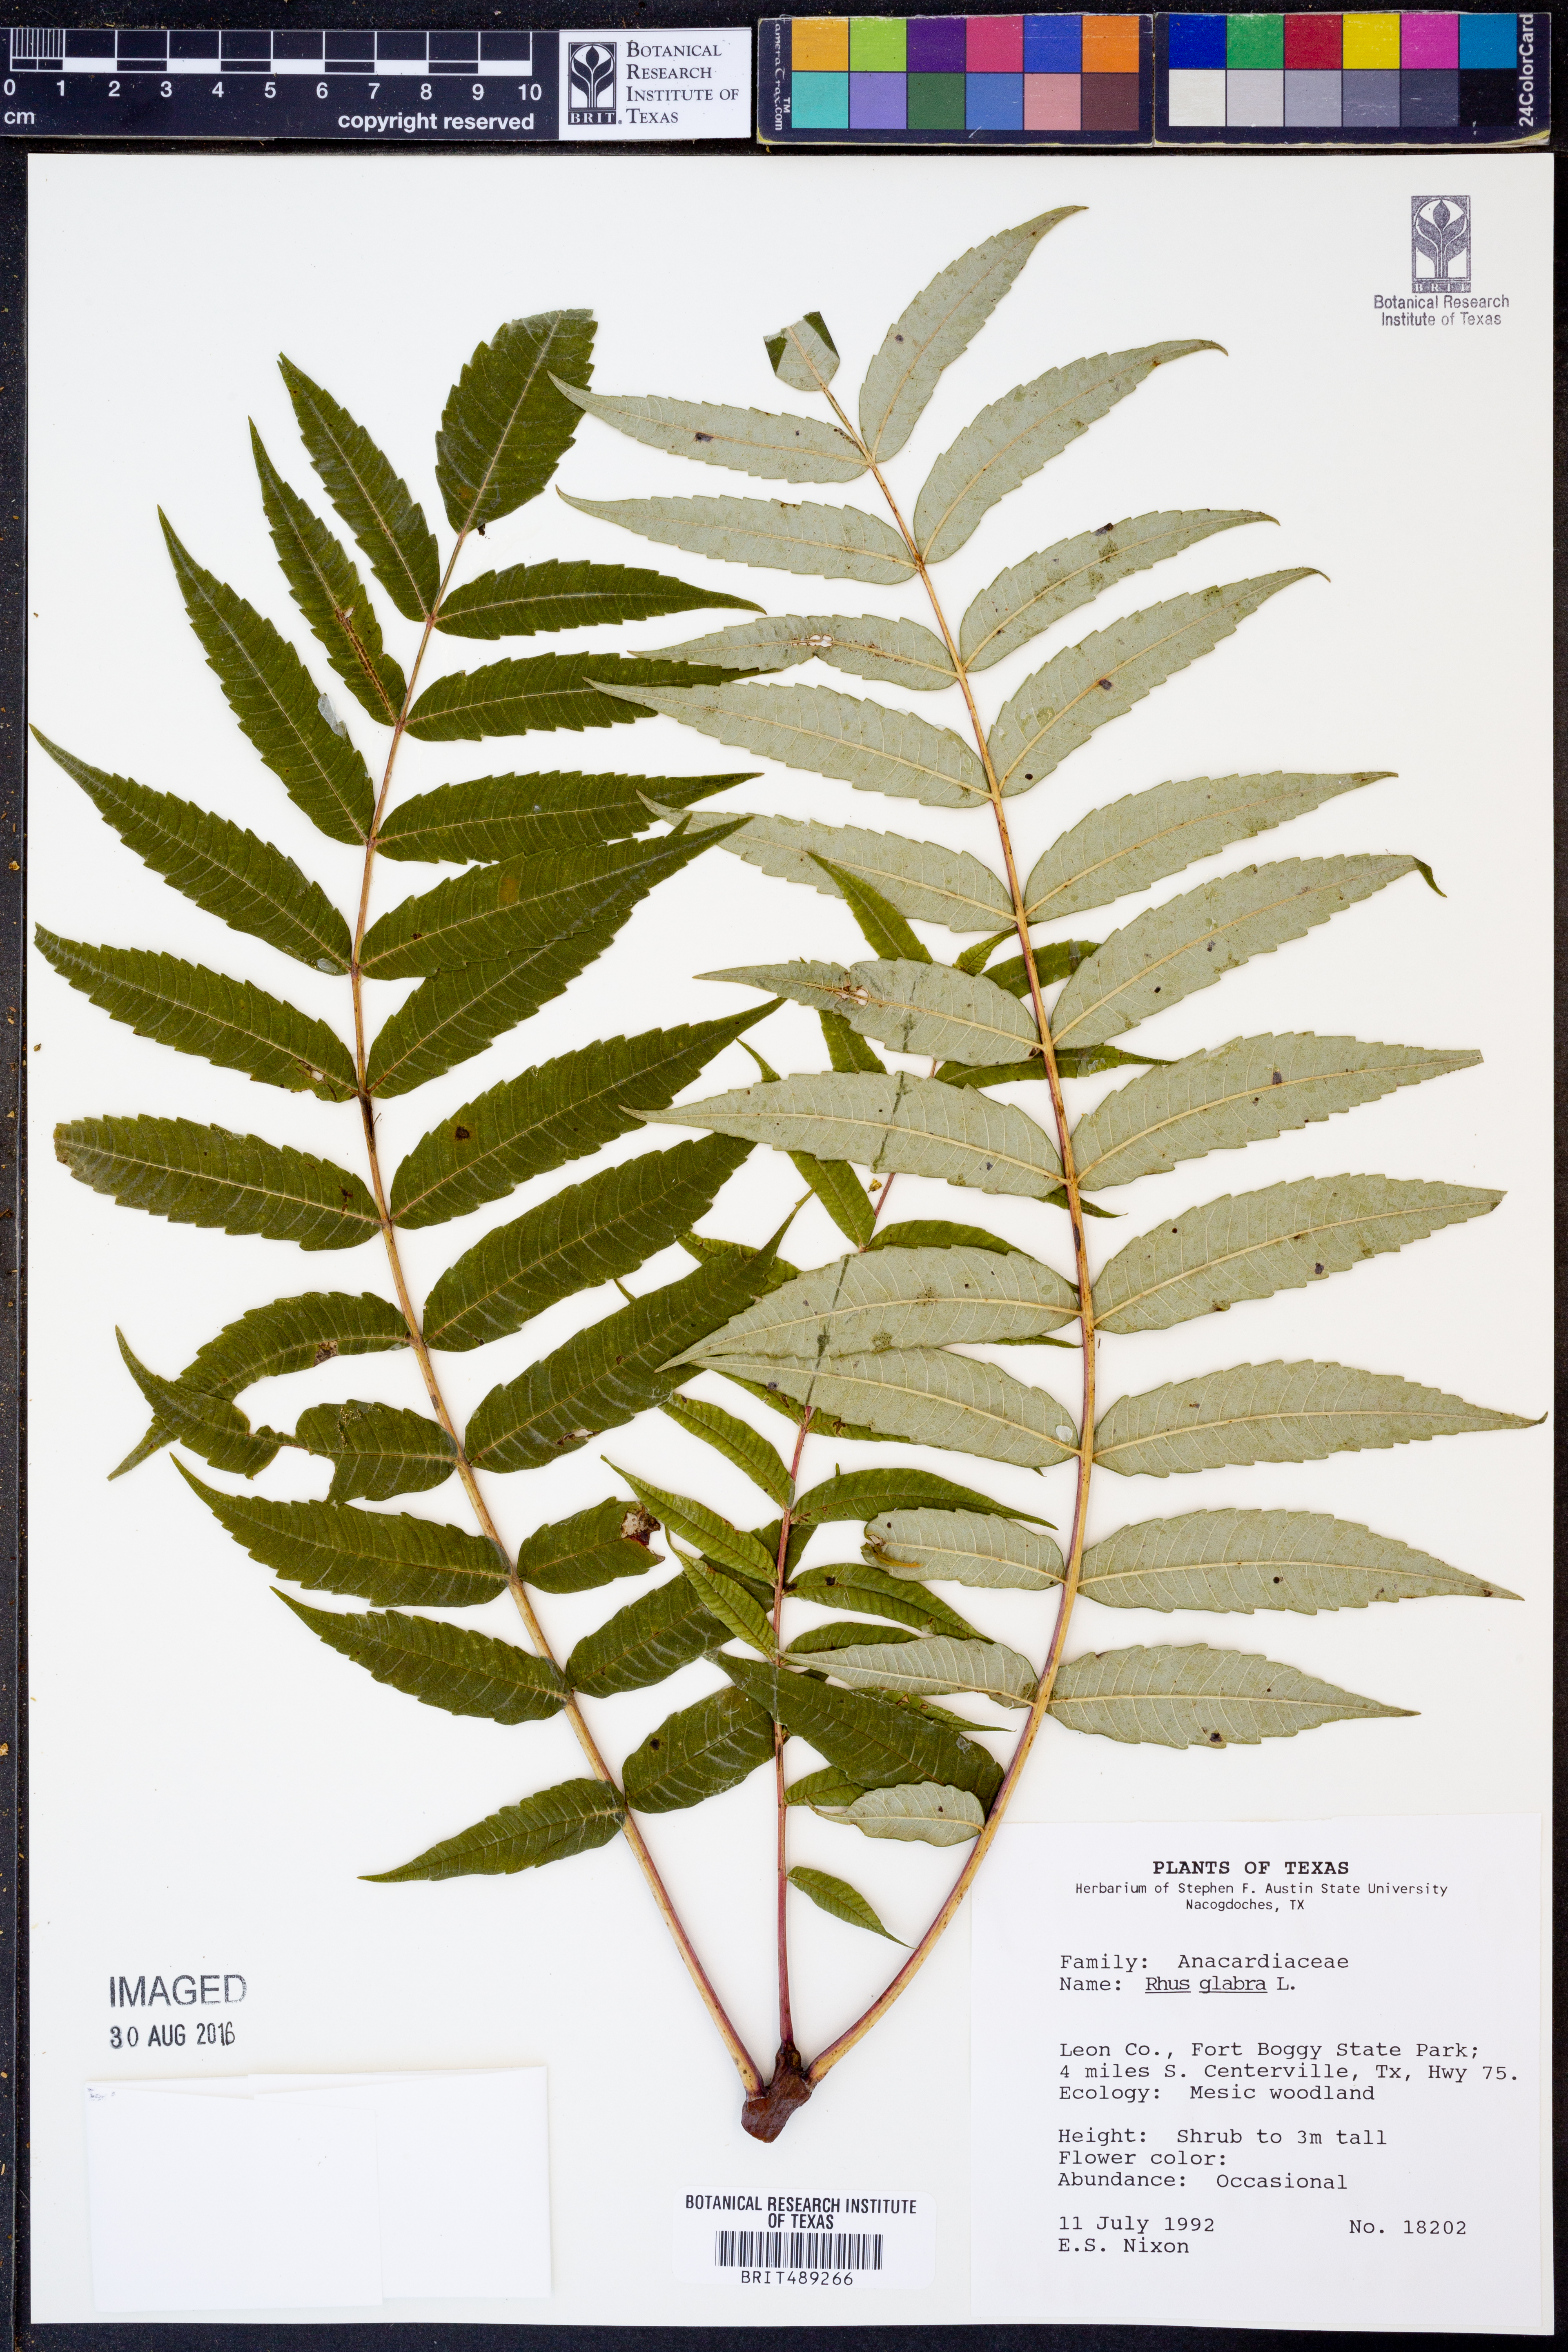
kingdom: Plantae
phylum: Tracheophyta
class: Magnoliopsida
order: Sapindales
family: Anacardiaceae
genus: Rhus
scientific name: Rhus glabra
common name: Scarlet sumac
